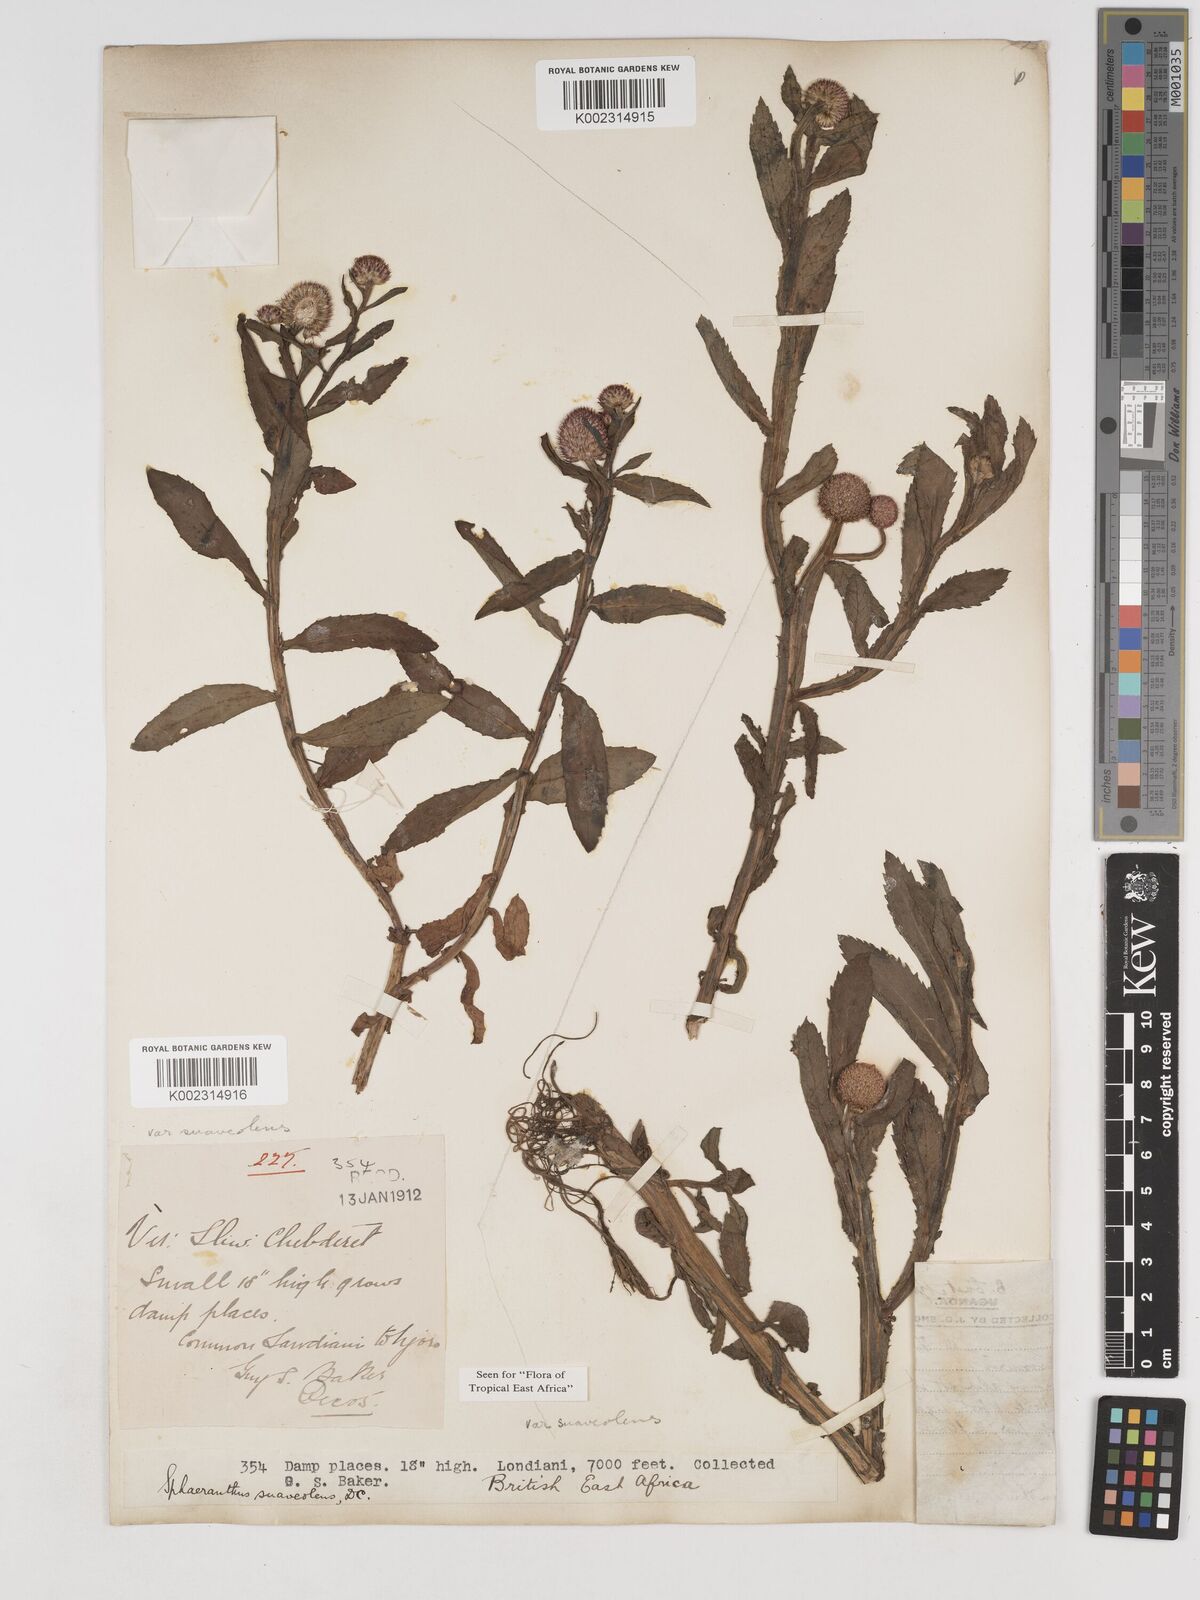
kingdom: Plantae
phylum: Tracheophyta
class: Magnoliopsida
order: Asterales
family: Asteraceae
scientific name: Asteraceae
